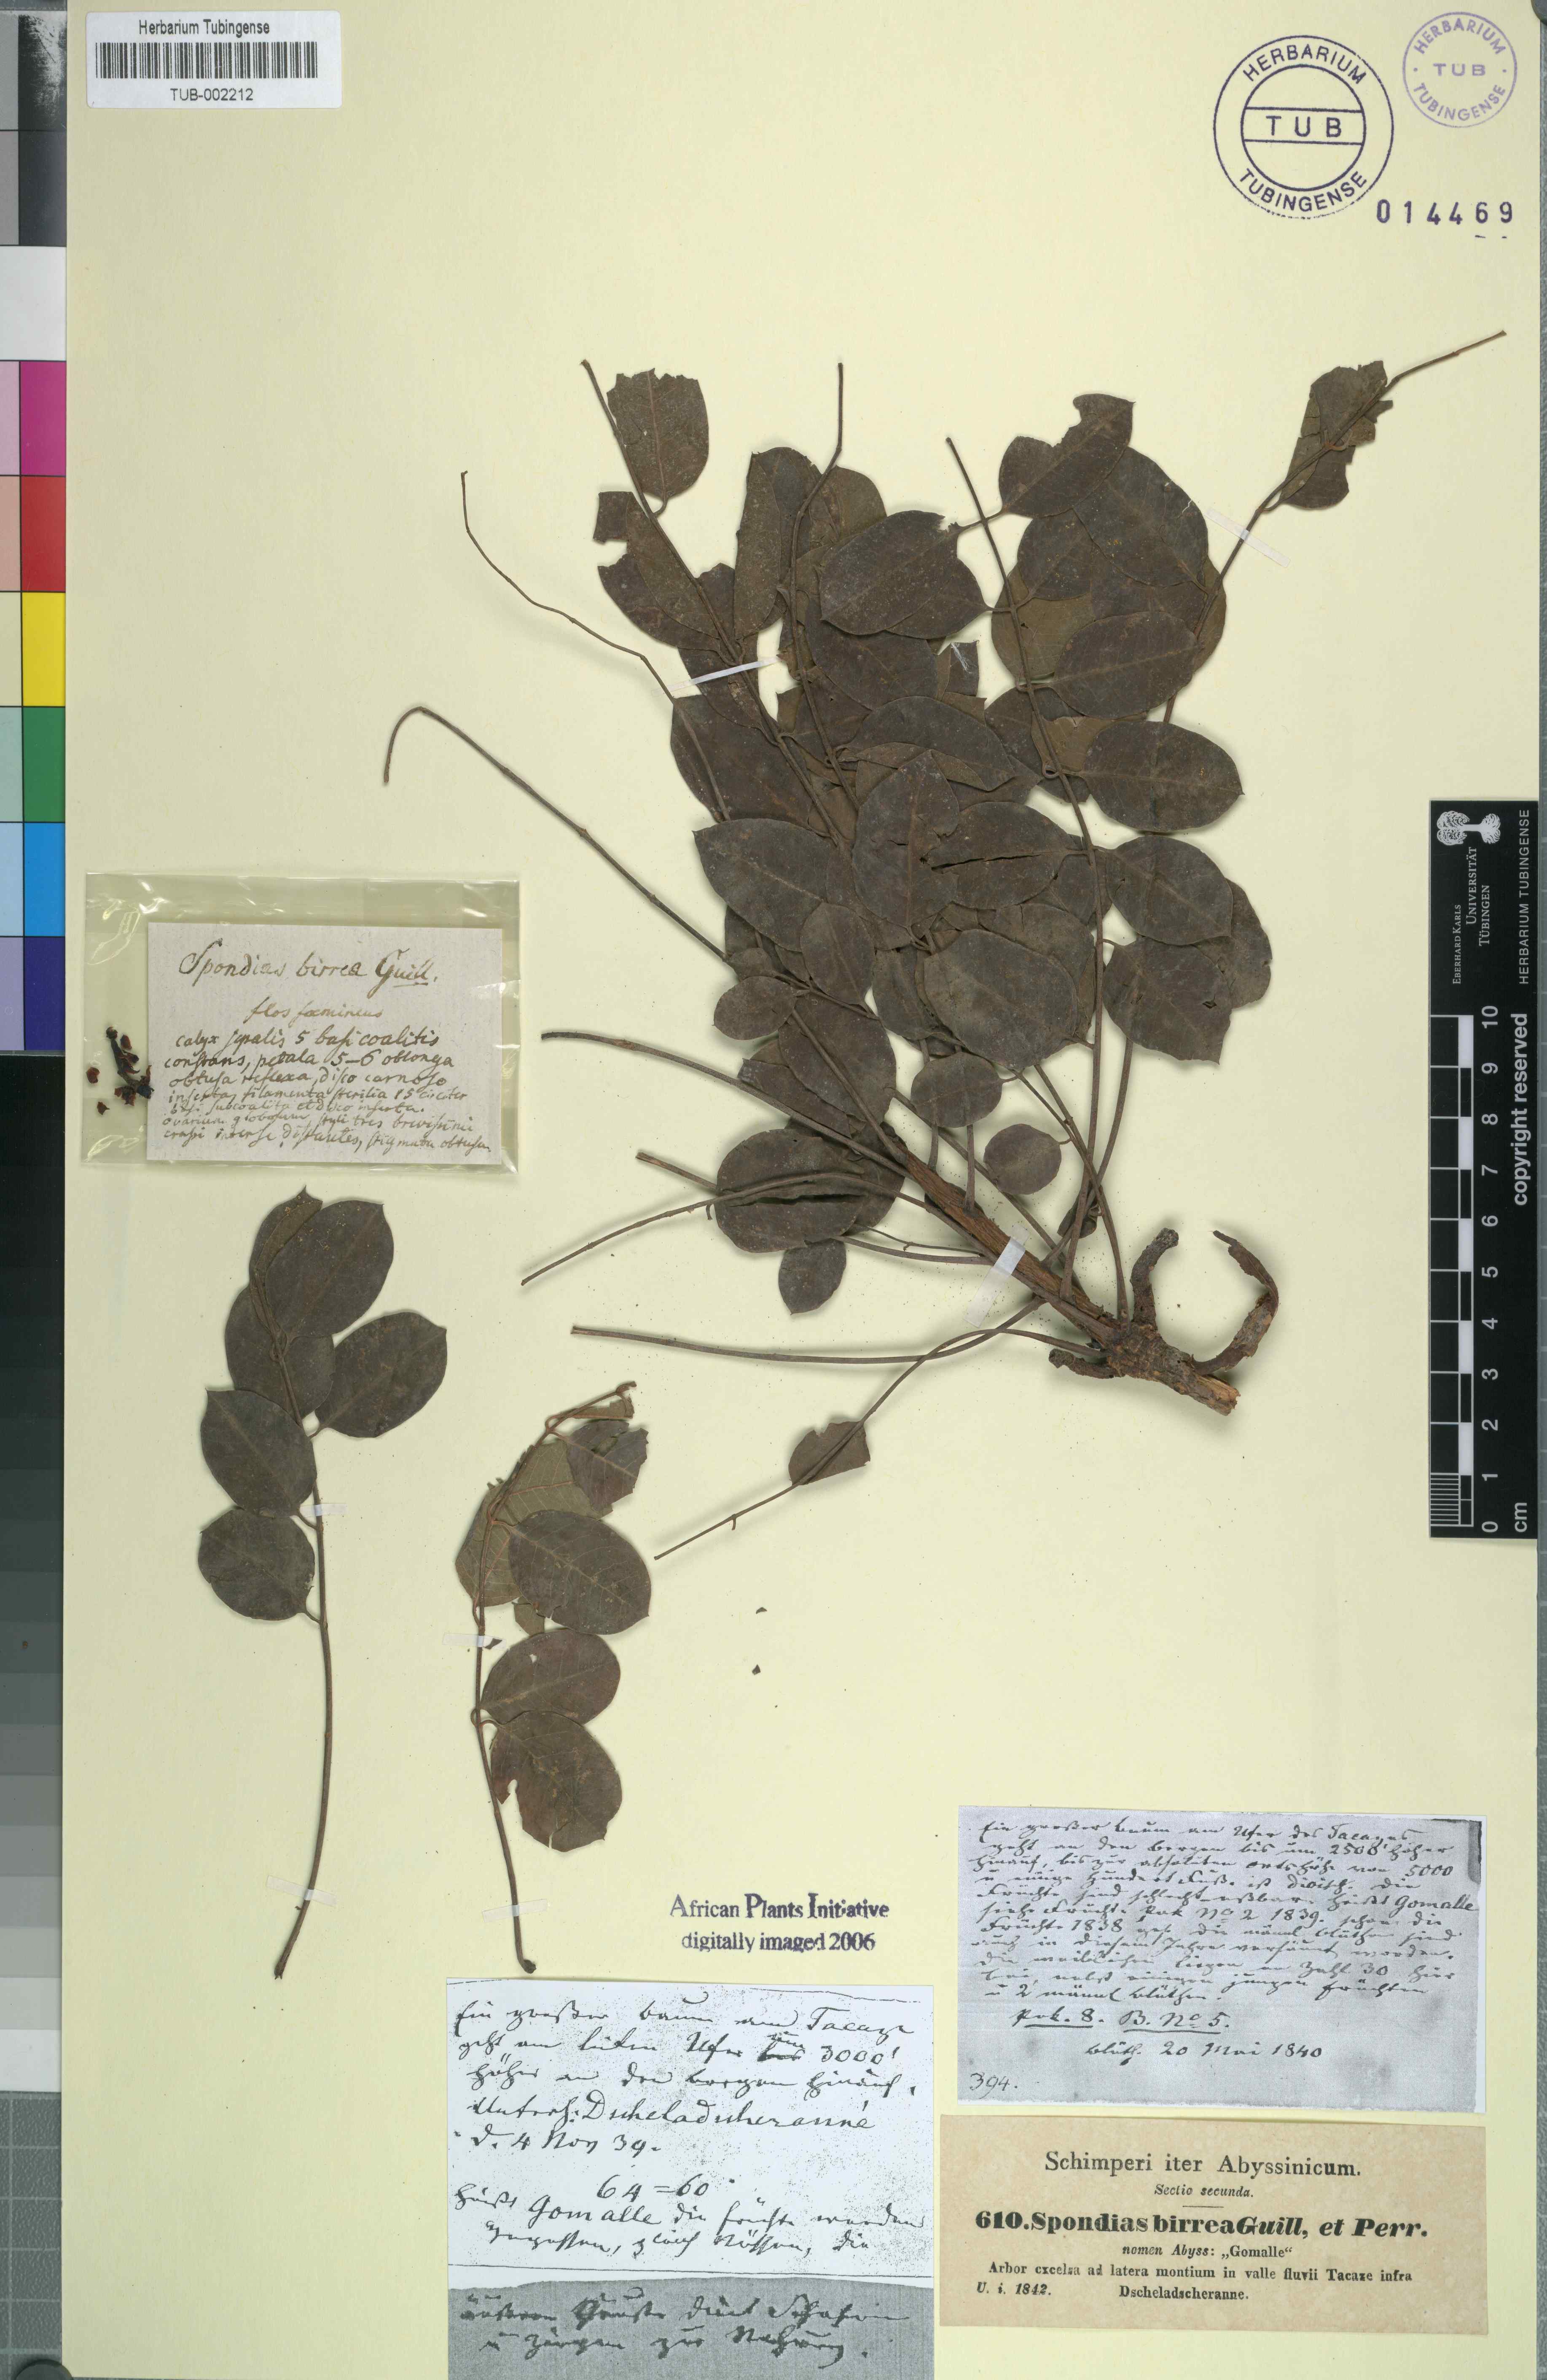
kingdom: Plantae
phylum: Tracheophyta
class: Magnoliopsida
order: Sapindales
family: Anacardiaceae
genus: Sclerocarya
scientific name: Sclerocarya birrea
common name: Marula
